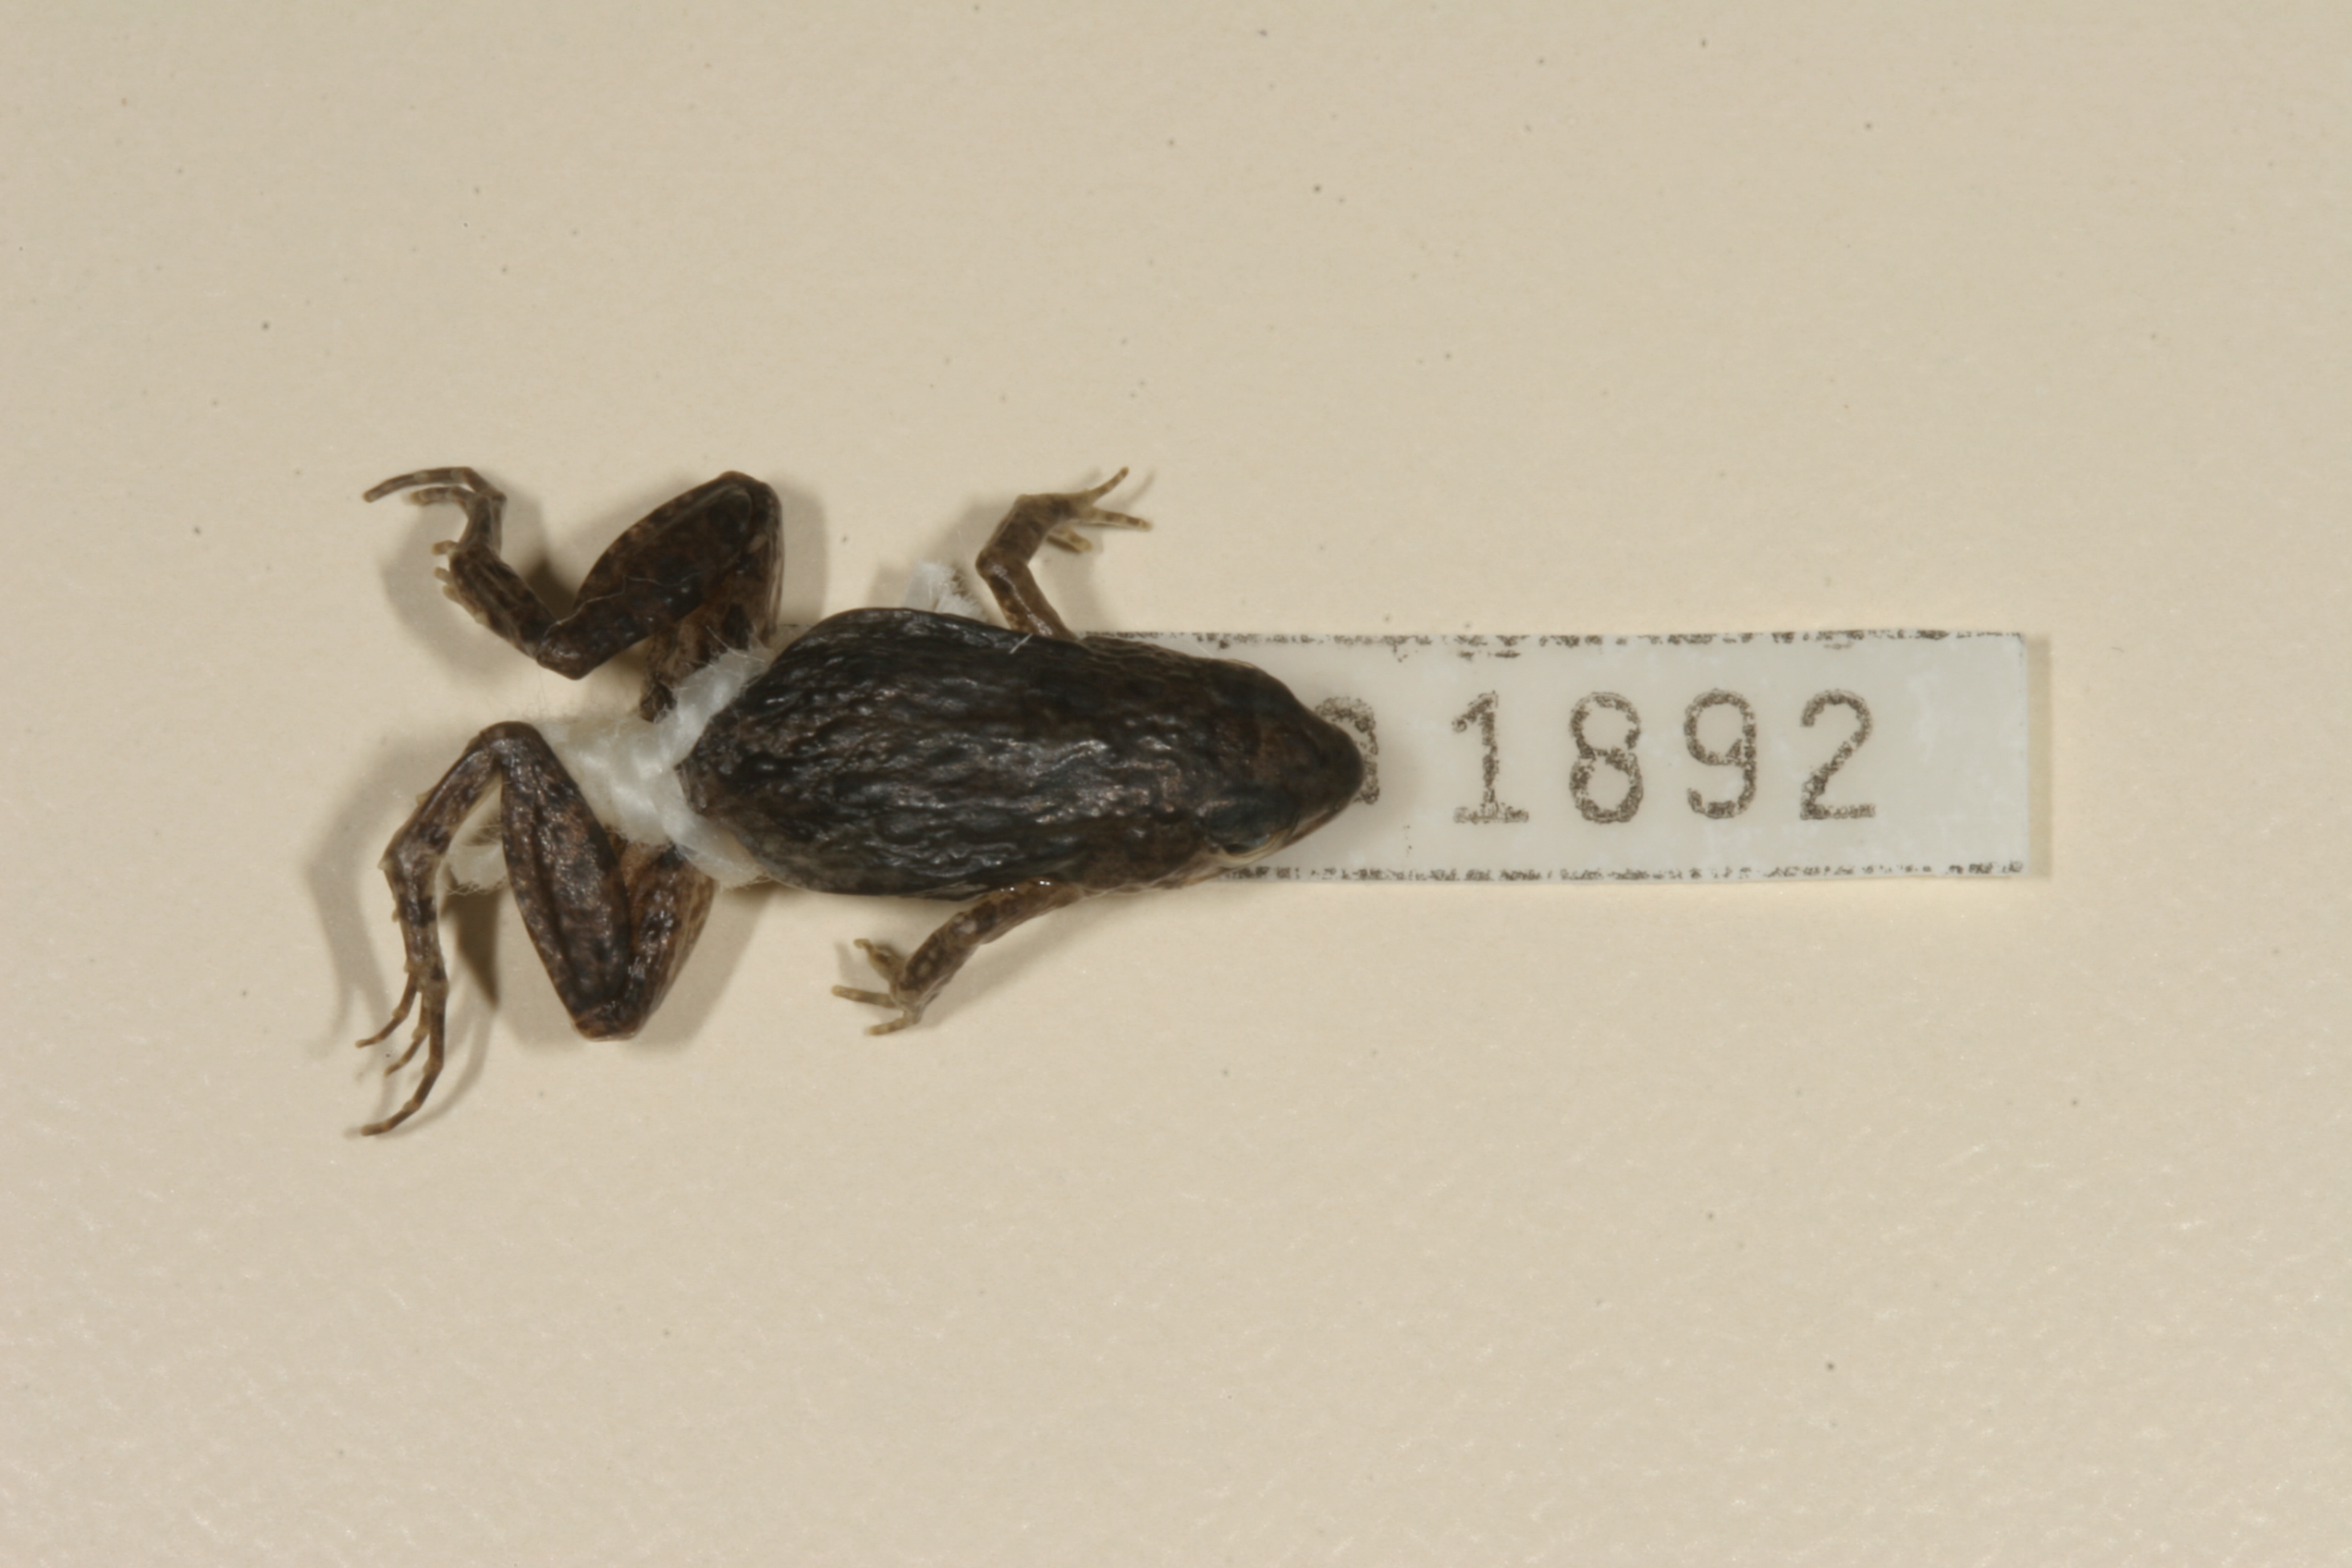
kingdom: Animalia
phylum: Chordata
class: Amphibia
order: Anura
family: Phrynobatrachidae
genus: Phrynobatrachus
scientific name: Phrynobatrachus mababiensis
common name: Dwarf puddle frog
